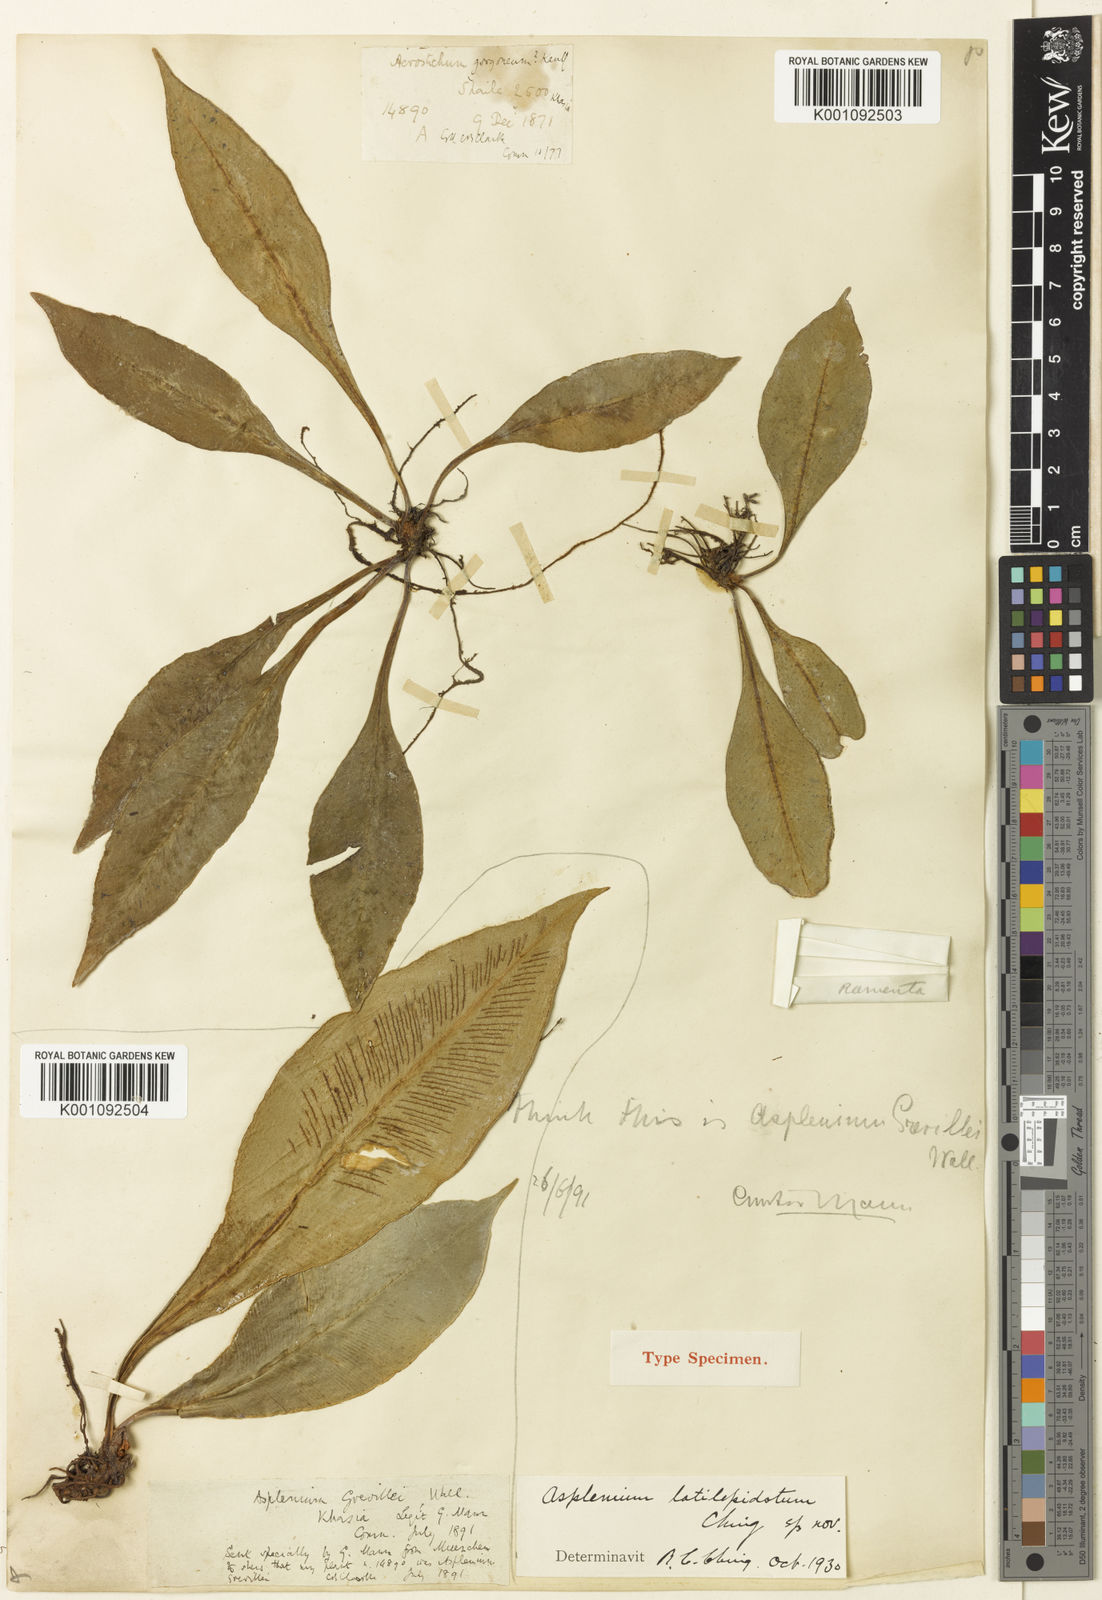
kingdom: Plantae
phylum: Tracheophyta
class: Polypodiopsida
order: Polypodiales
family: Aspleniaceae
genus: Asplenium
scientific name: Asplenium
